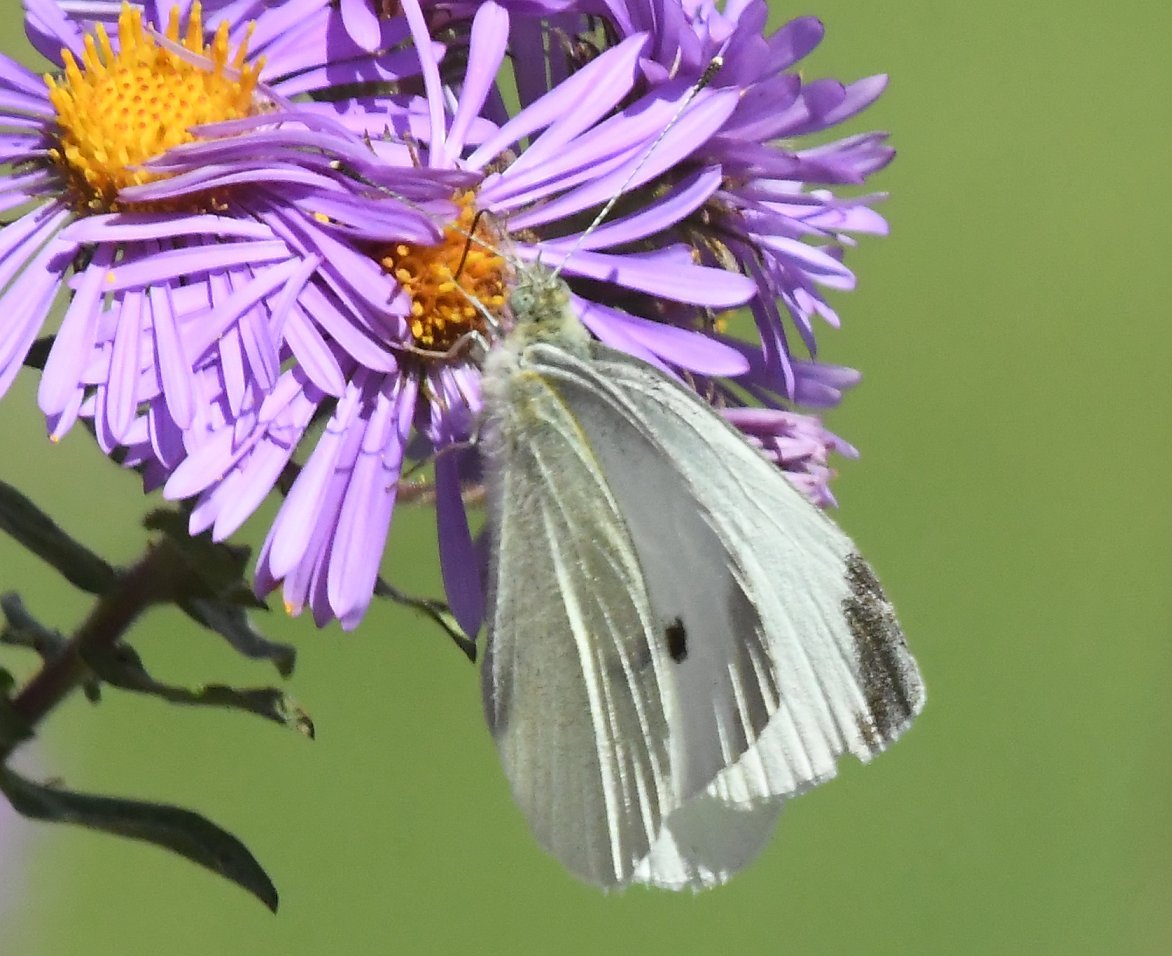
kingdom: Animalia
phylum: Arthropoda
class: Insecta
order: Lepidoptera
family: Pieridae
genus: Pieris
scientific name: Pieris rapae
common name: Cabbage White
